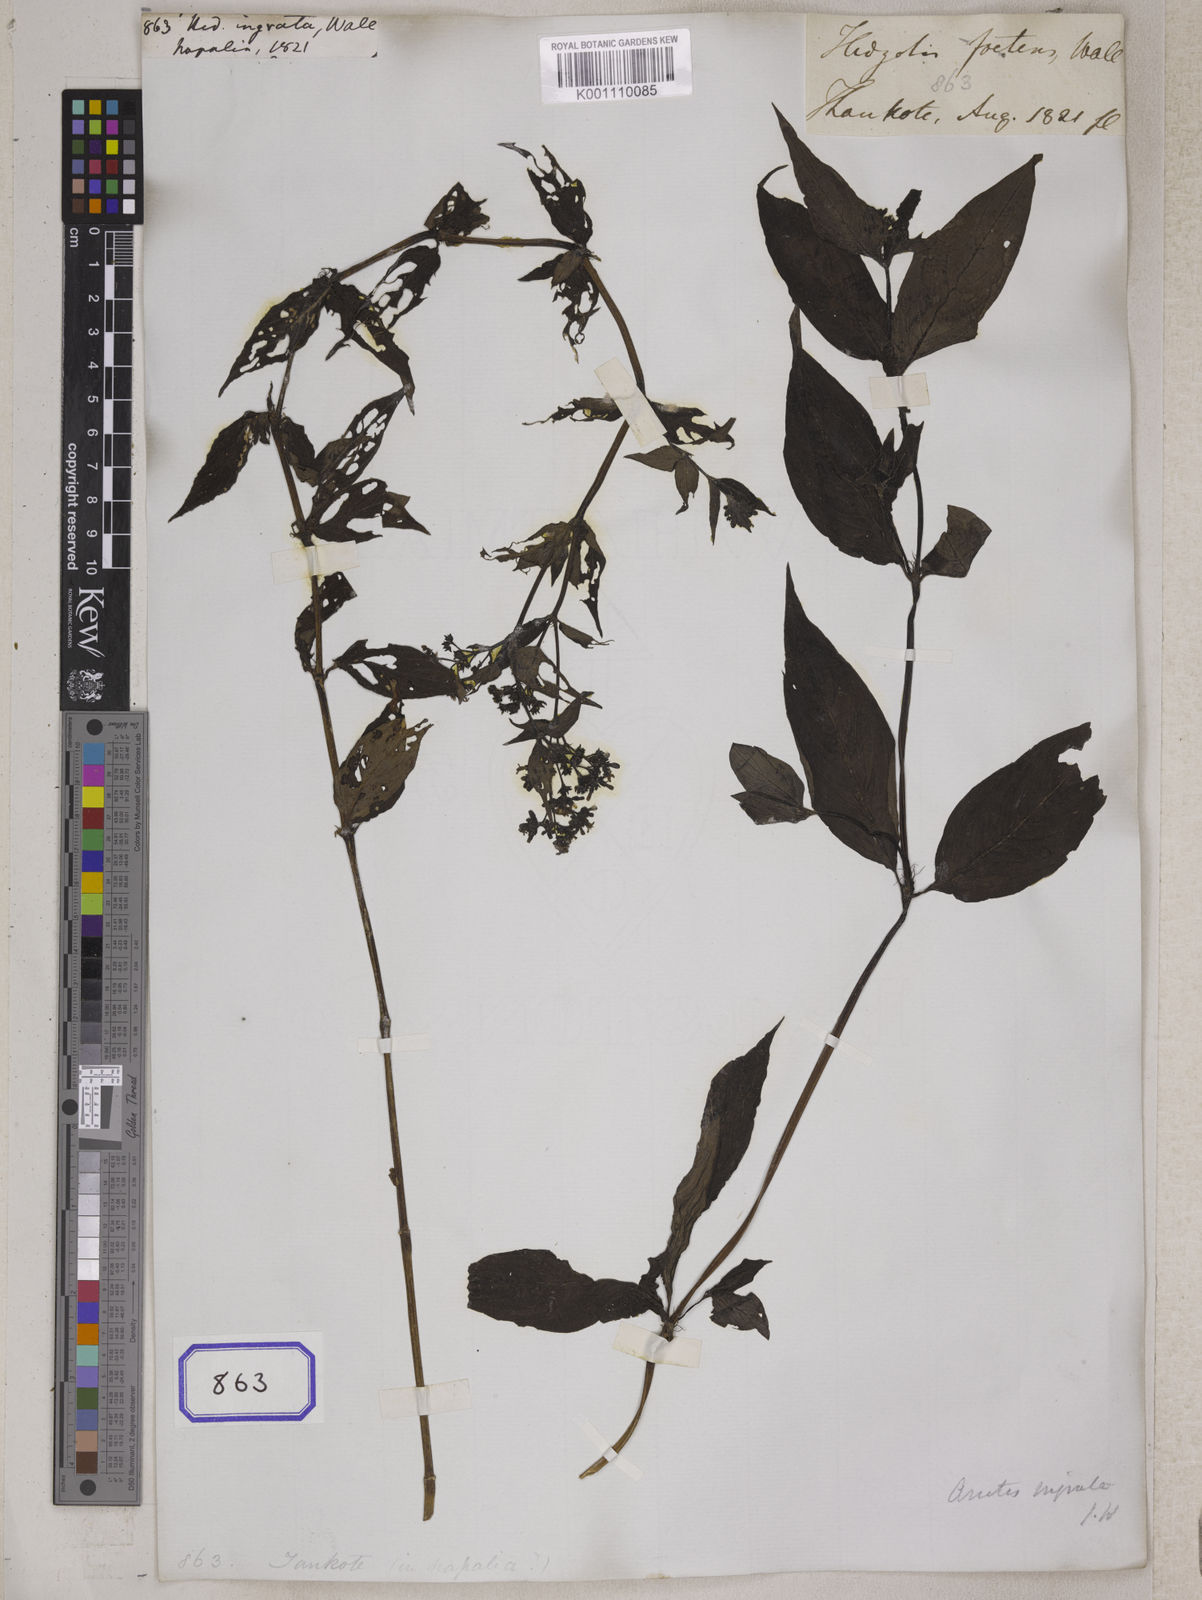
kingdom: Plantae
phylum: Tracheophyta
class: Magnoliopsida
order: Gentianales
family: Rubiaceae
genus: Neanotis
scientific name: Neanotis ingrata
